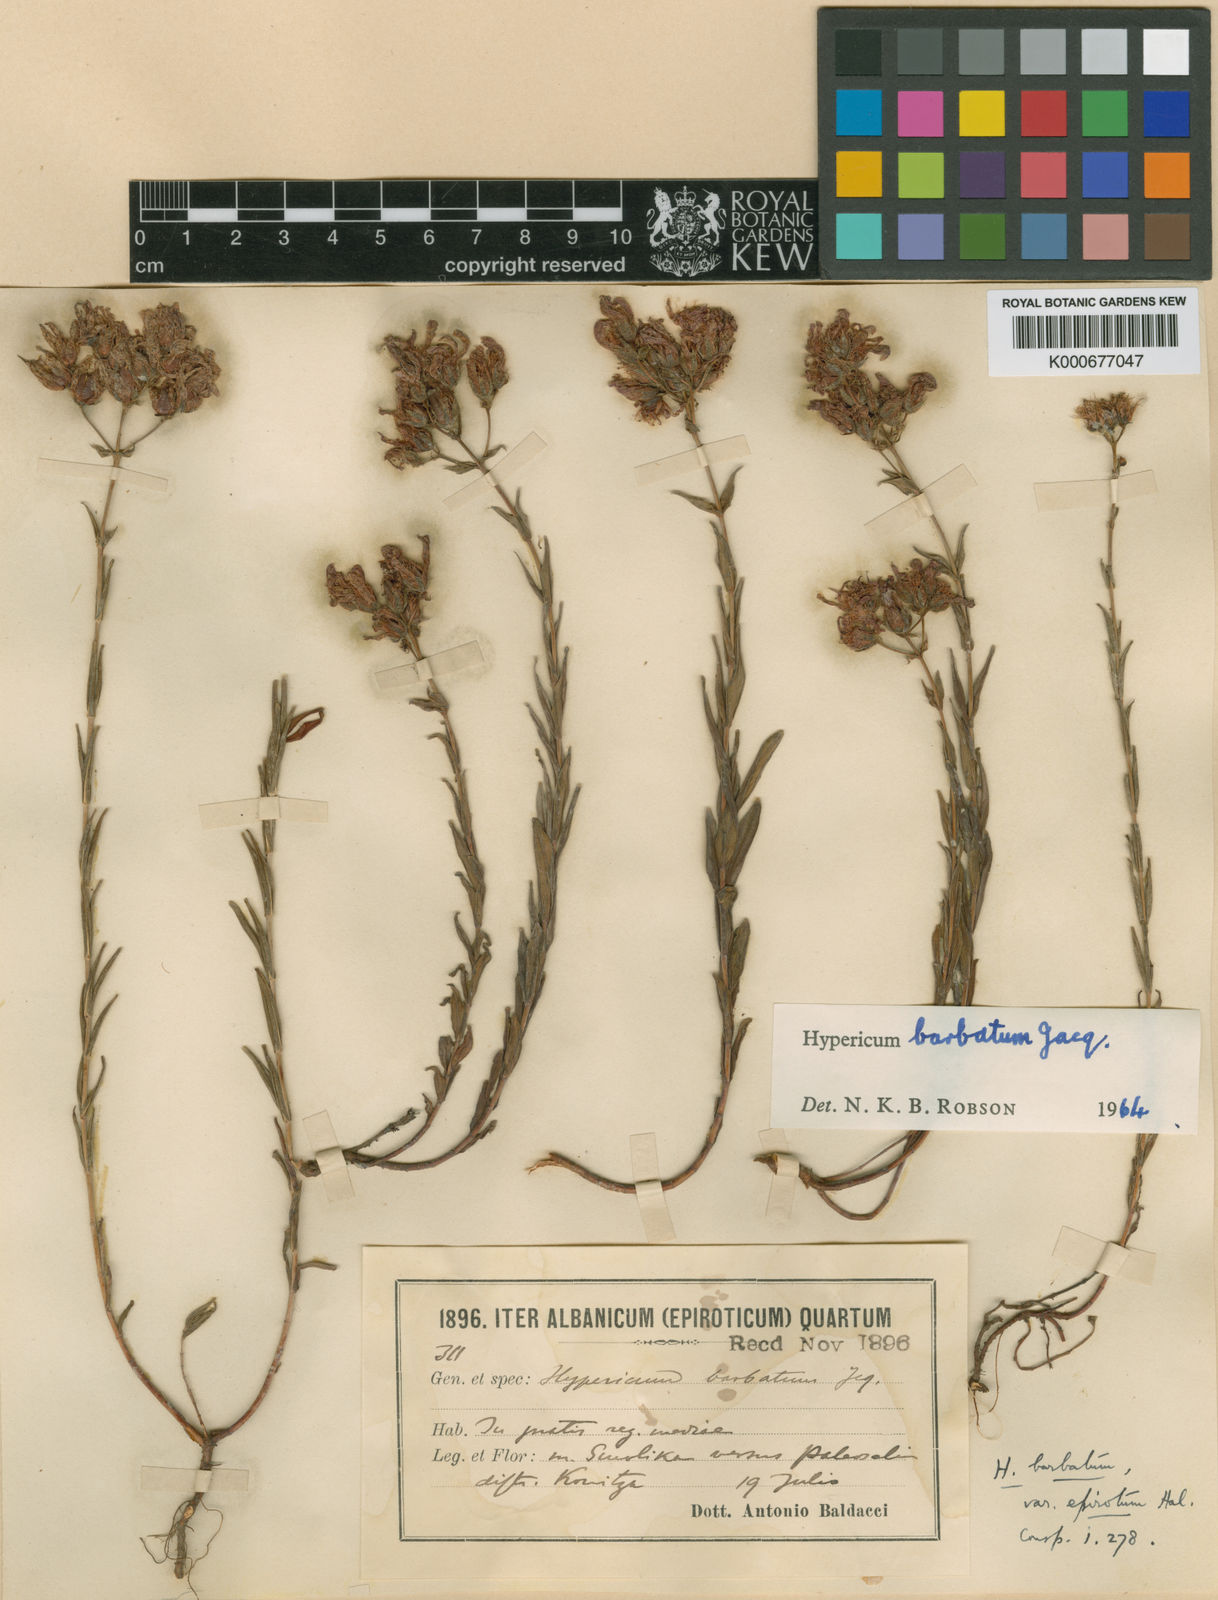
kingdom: Plantae
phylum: Tracheophyta
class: Magnoliopsida
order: Malpighiales
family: Hypericaceae
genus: Hypericum
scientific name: Hypericum barbatum
